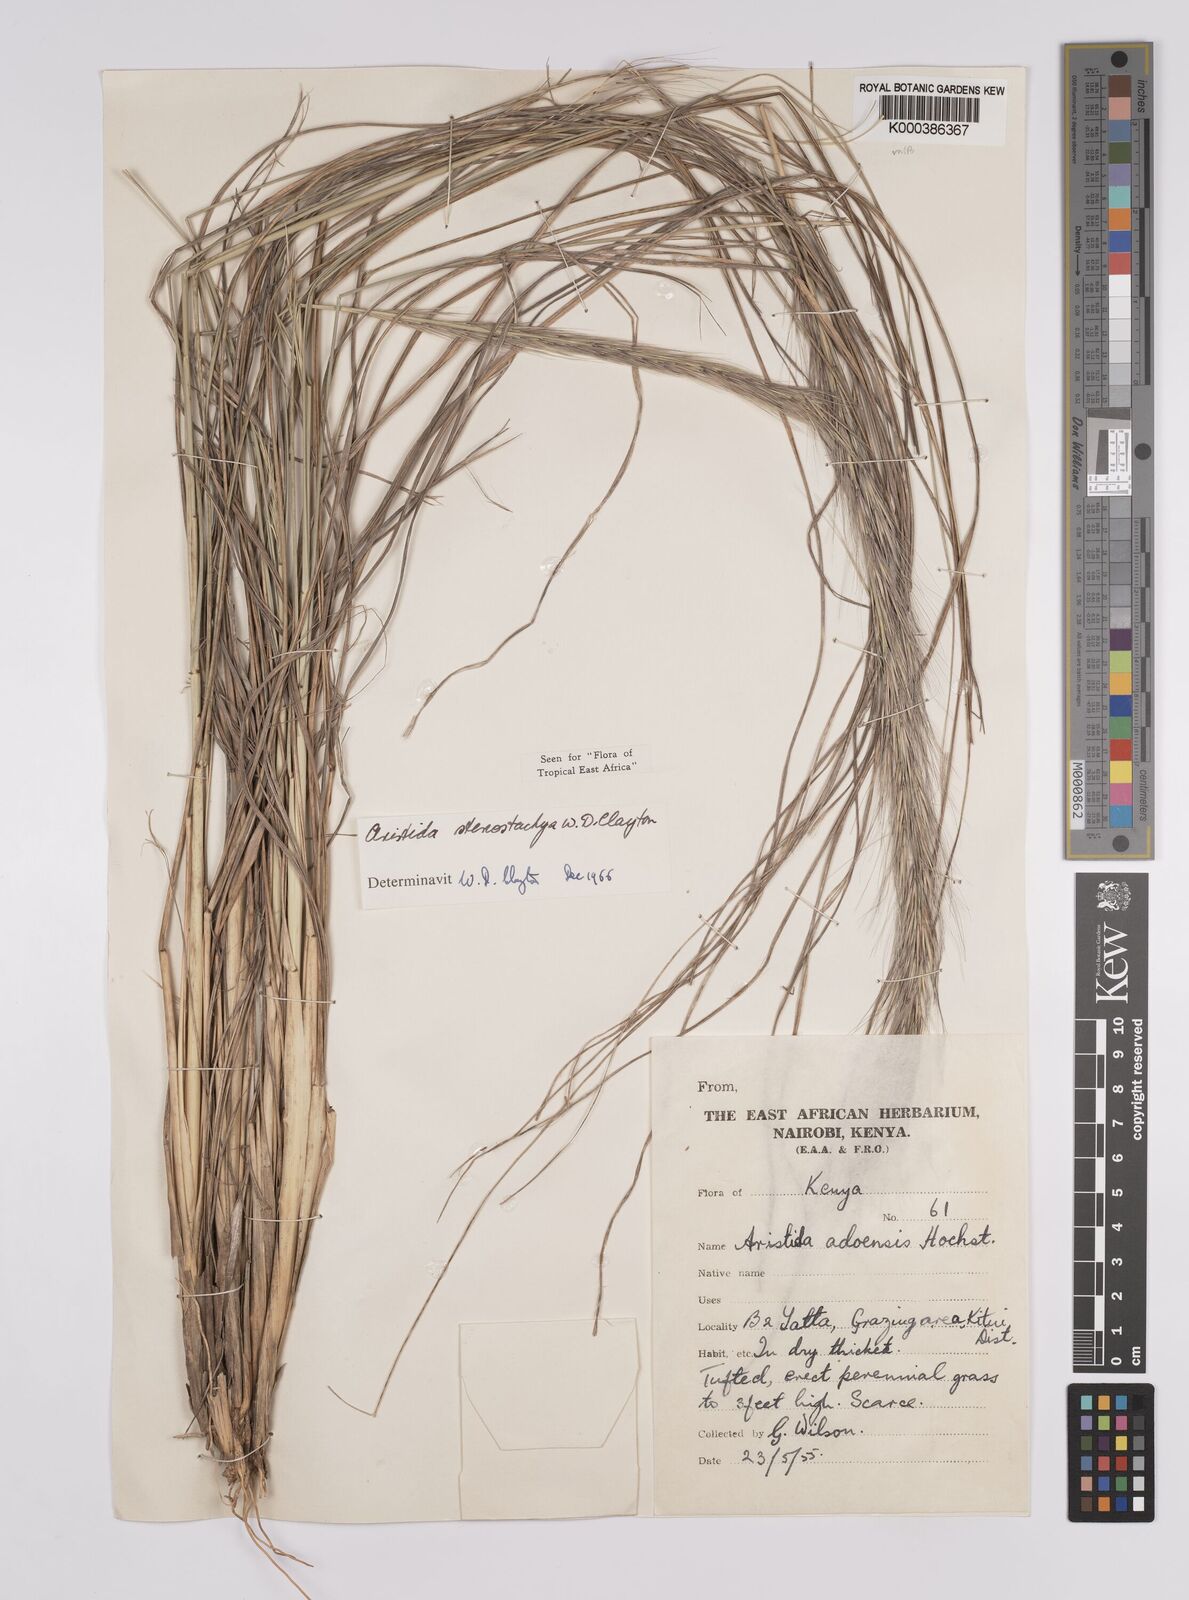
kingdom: Plantae
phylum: Tracheophyta
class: Liliopsida
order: Poales
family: Poaceae
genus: Aristida
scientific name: Aristida stenostachya
